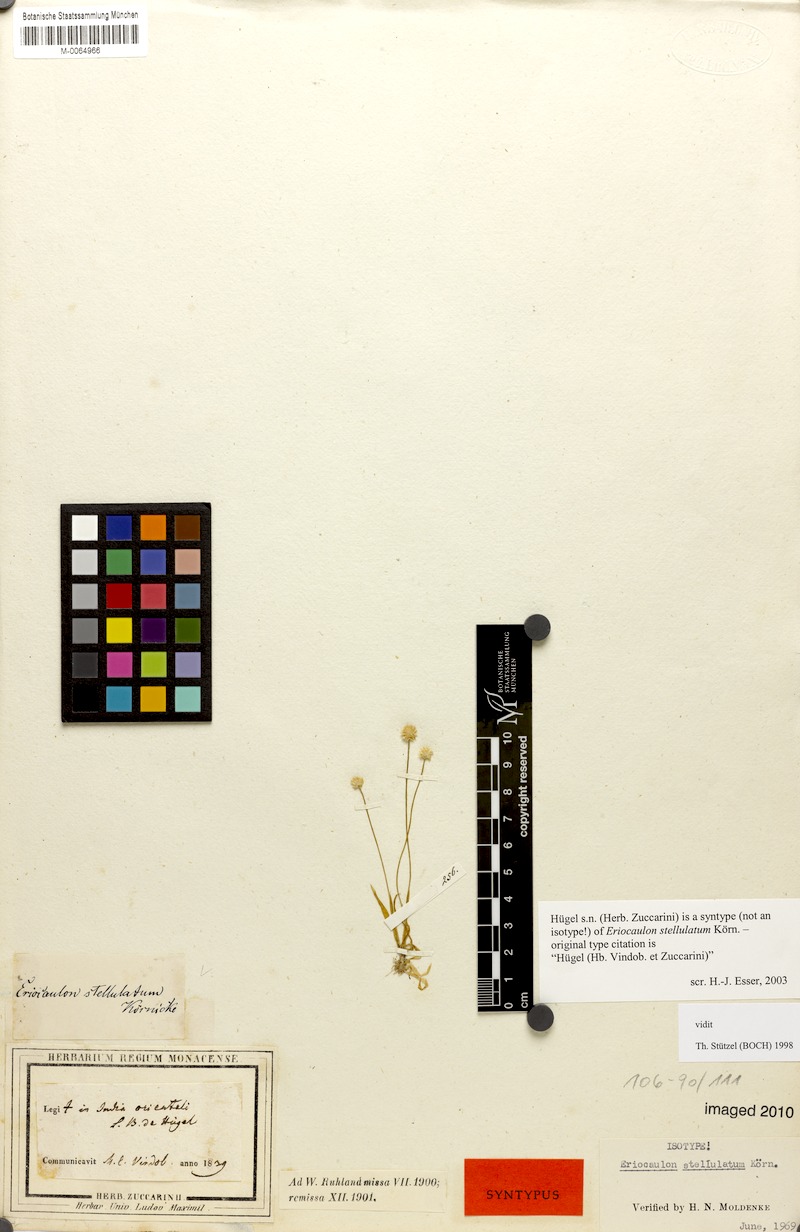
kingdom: Plantae
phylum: Tracheophyta
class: Liliopsida
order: Poales
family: Eriocaulaceae
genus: Eriocaulon
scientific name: Eriocaulon stellulatum
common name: Starry pipewort
